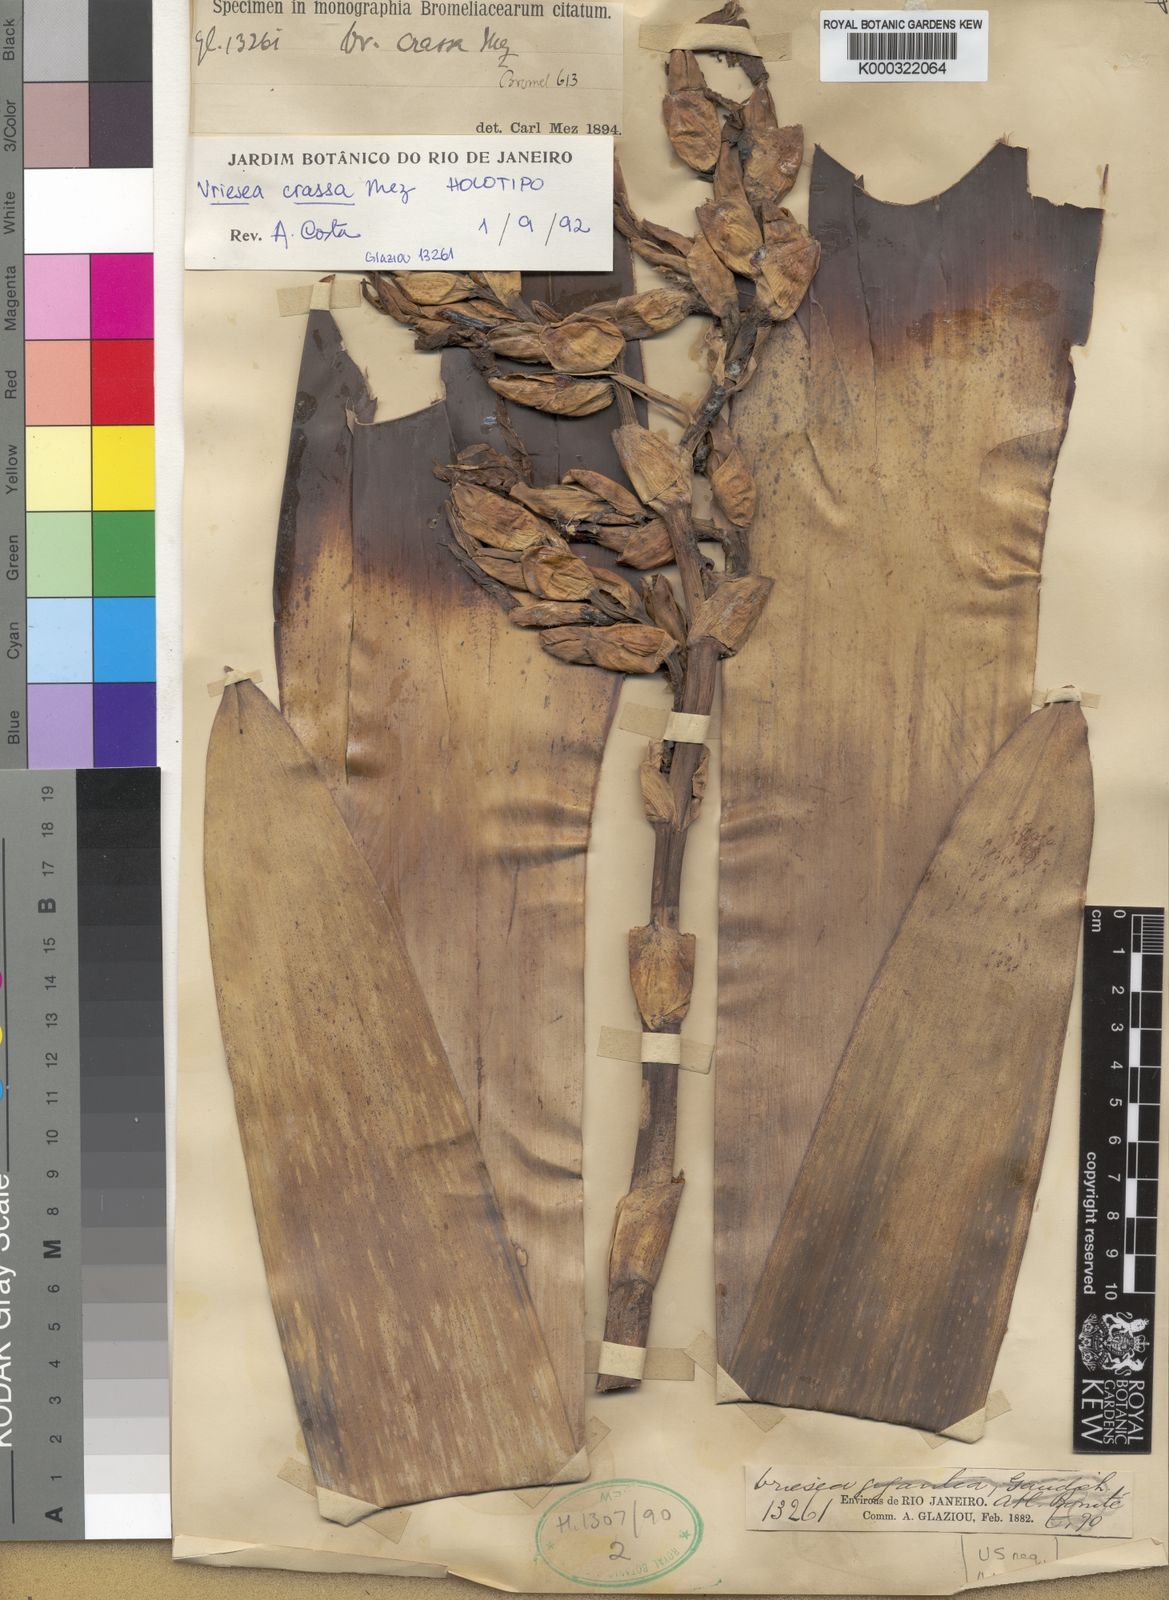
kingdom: Plantae
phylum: Tracheophyta
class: Liliopsida
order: Poales
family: Bromeliaceae
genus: Vriesea
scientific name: Vriesea crassa
